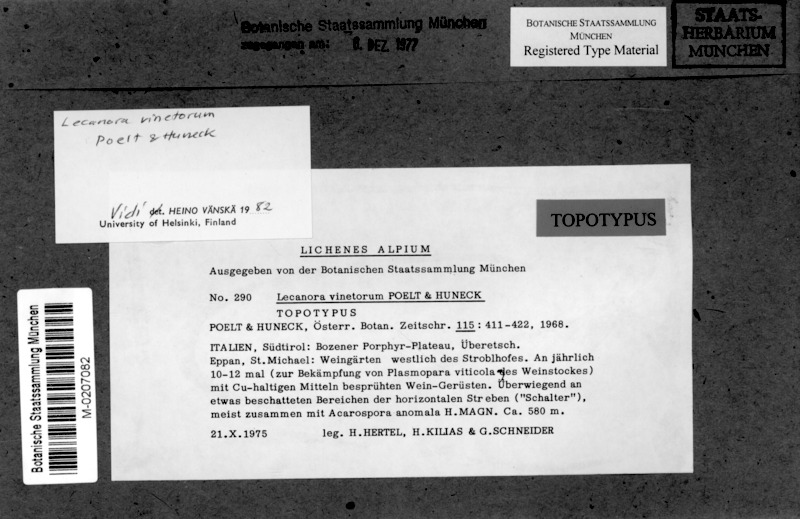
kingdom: Fungi
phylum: Ascomycota
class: Lecanoromycetes
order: Lecanorales
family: Lecanoraceae
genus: Lecanora
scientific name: Lecanora vinetorum
